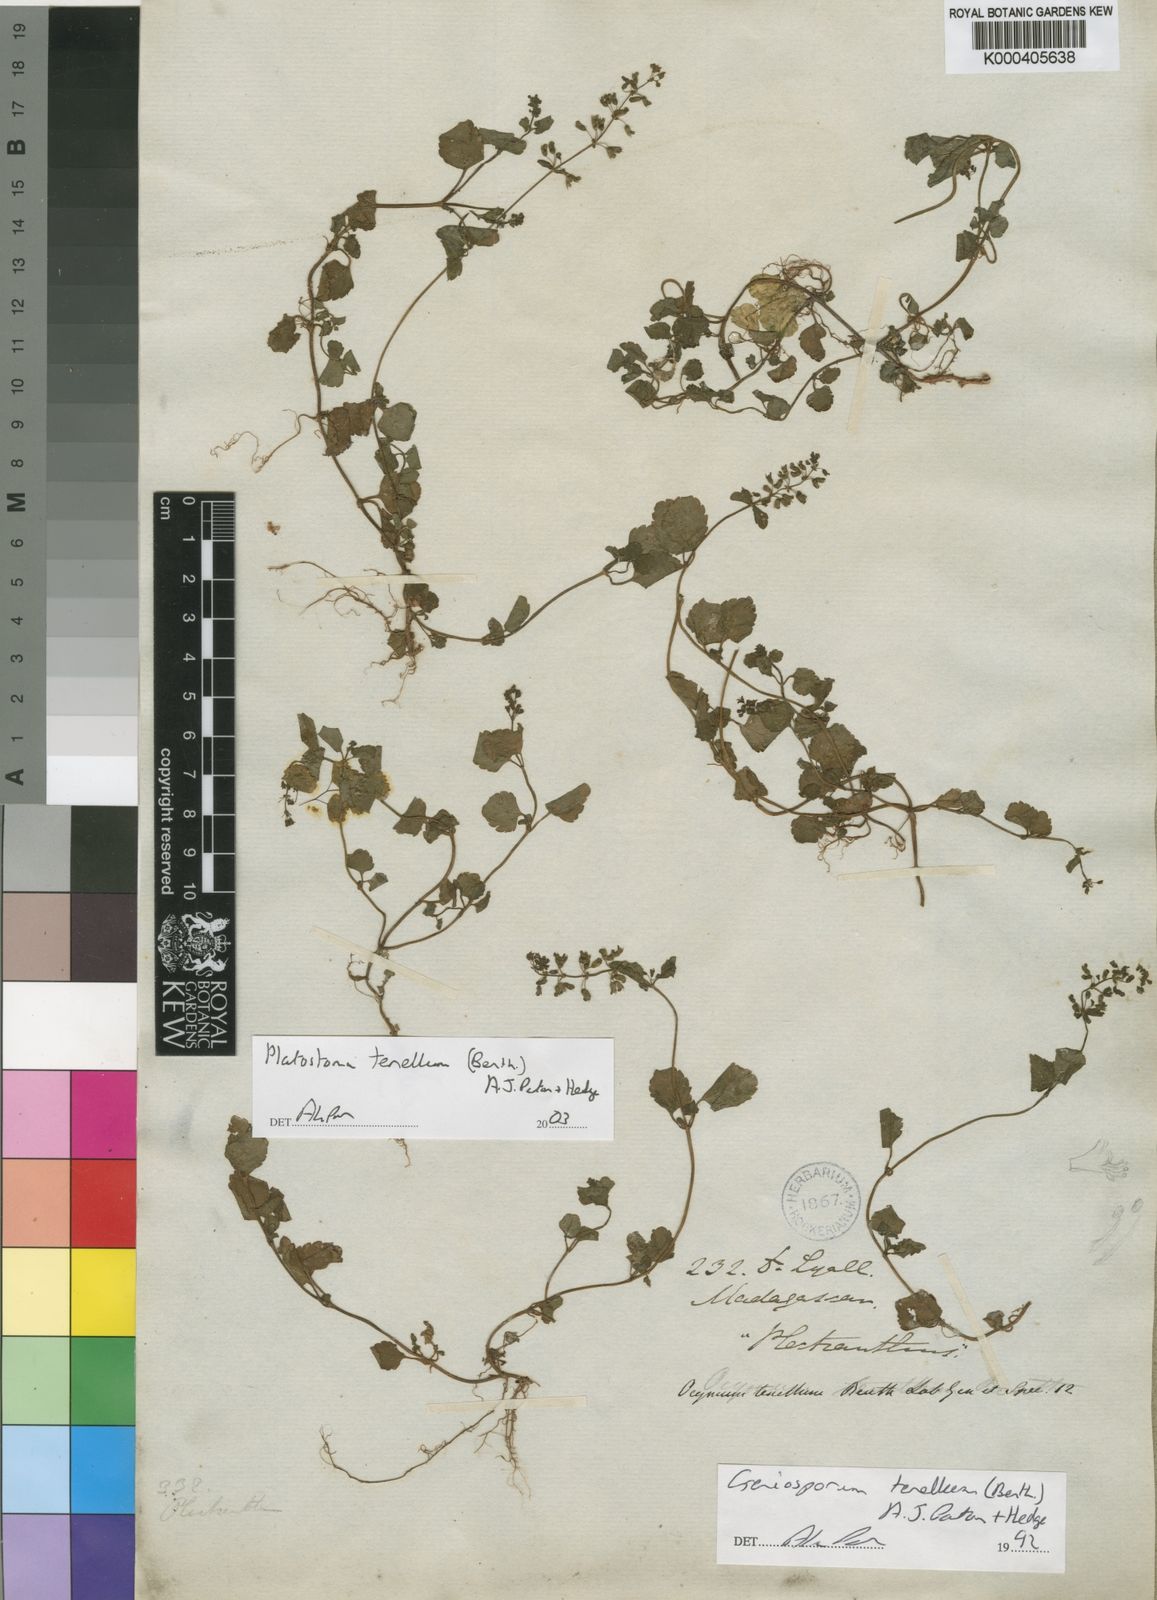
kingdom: Plantae
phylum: Tracheophyta
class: Magnoliopsida
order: Lamiales
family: Lamiaceae
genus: Platostoma
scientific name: Platostoma tenellum
